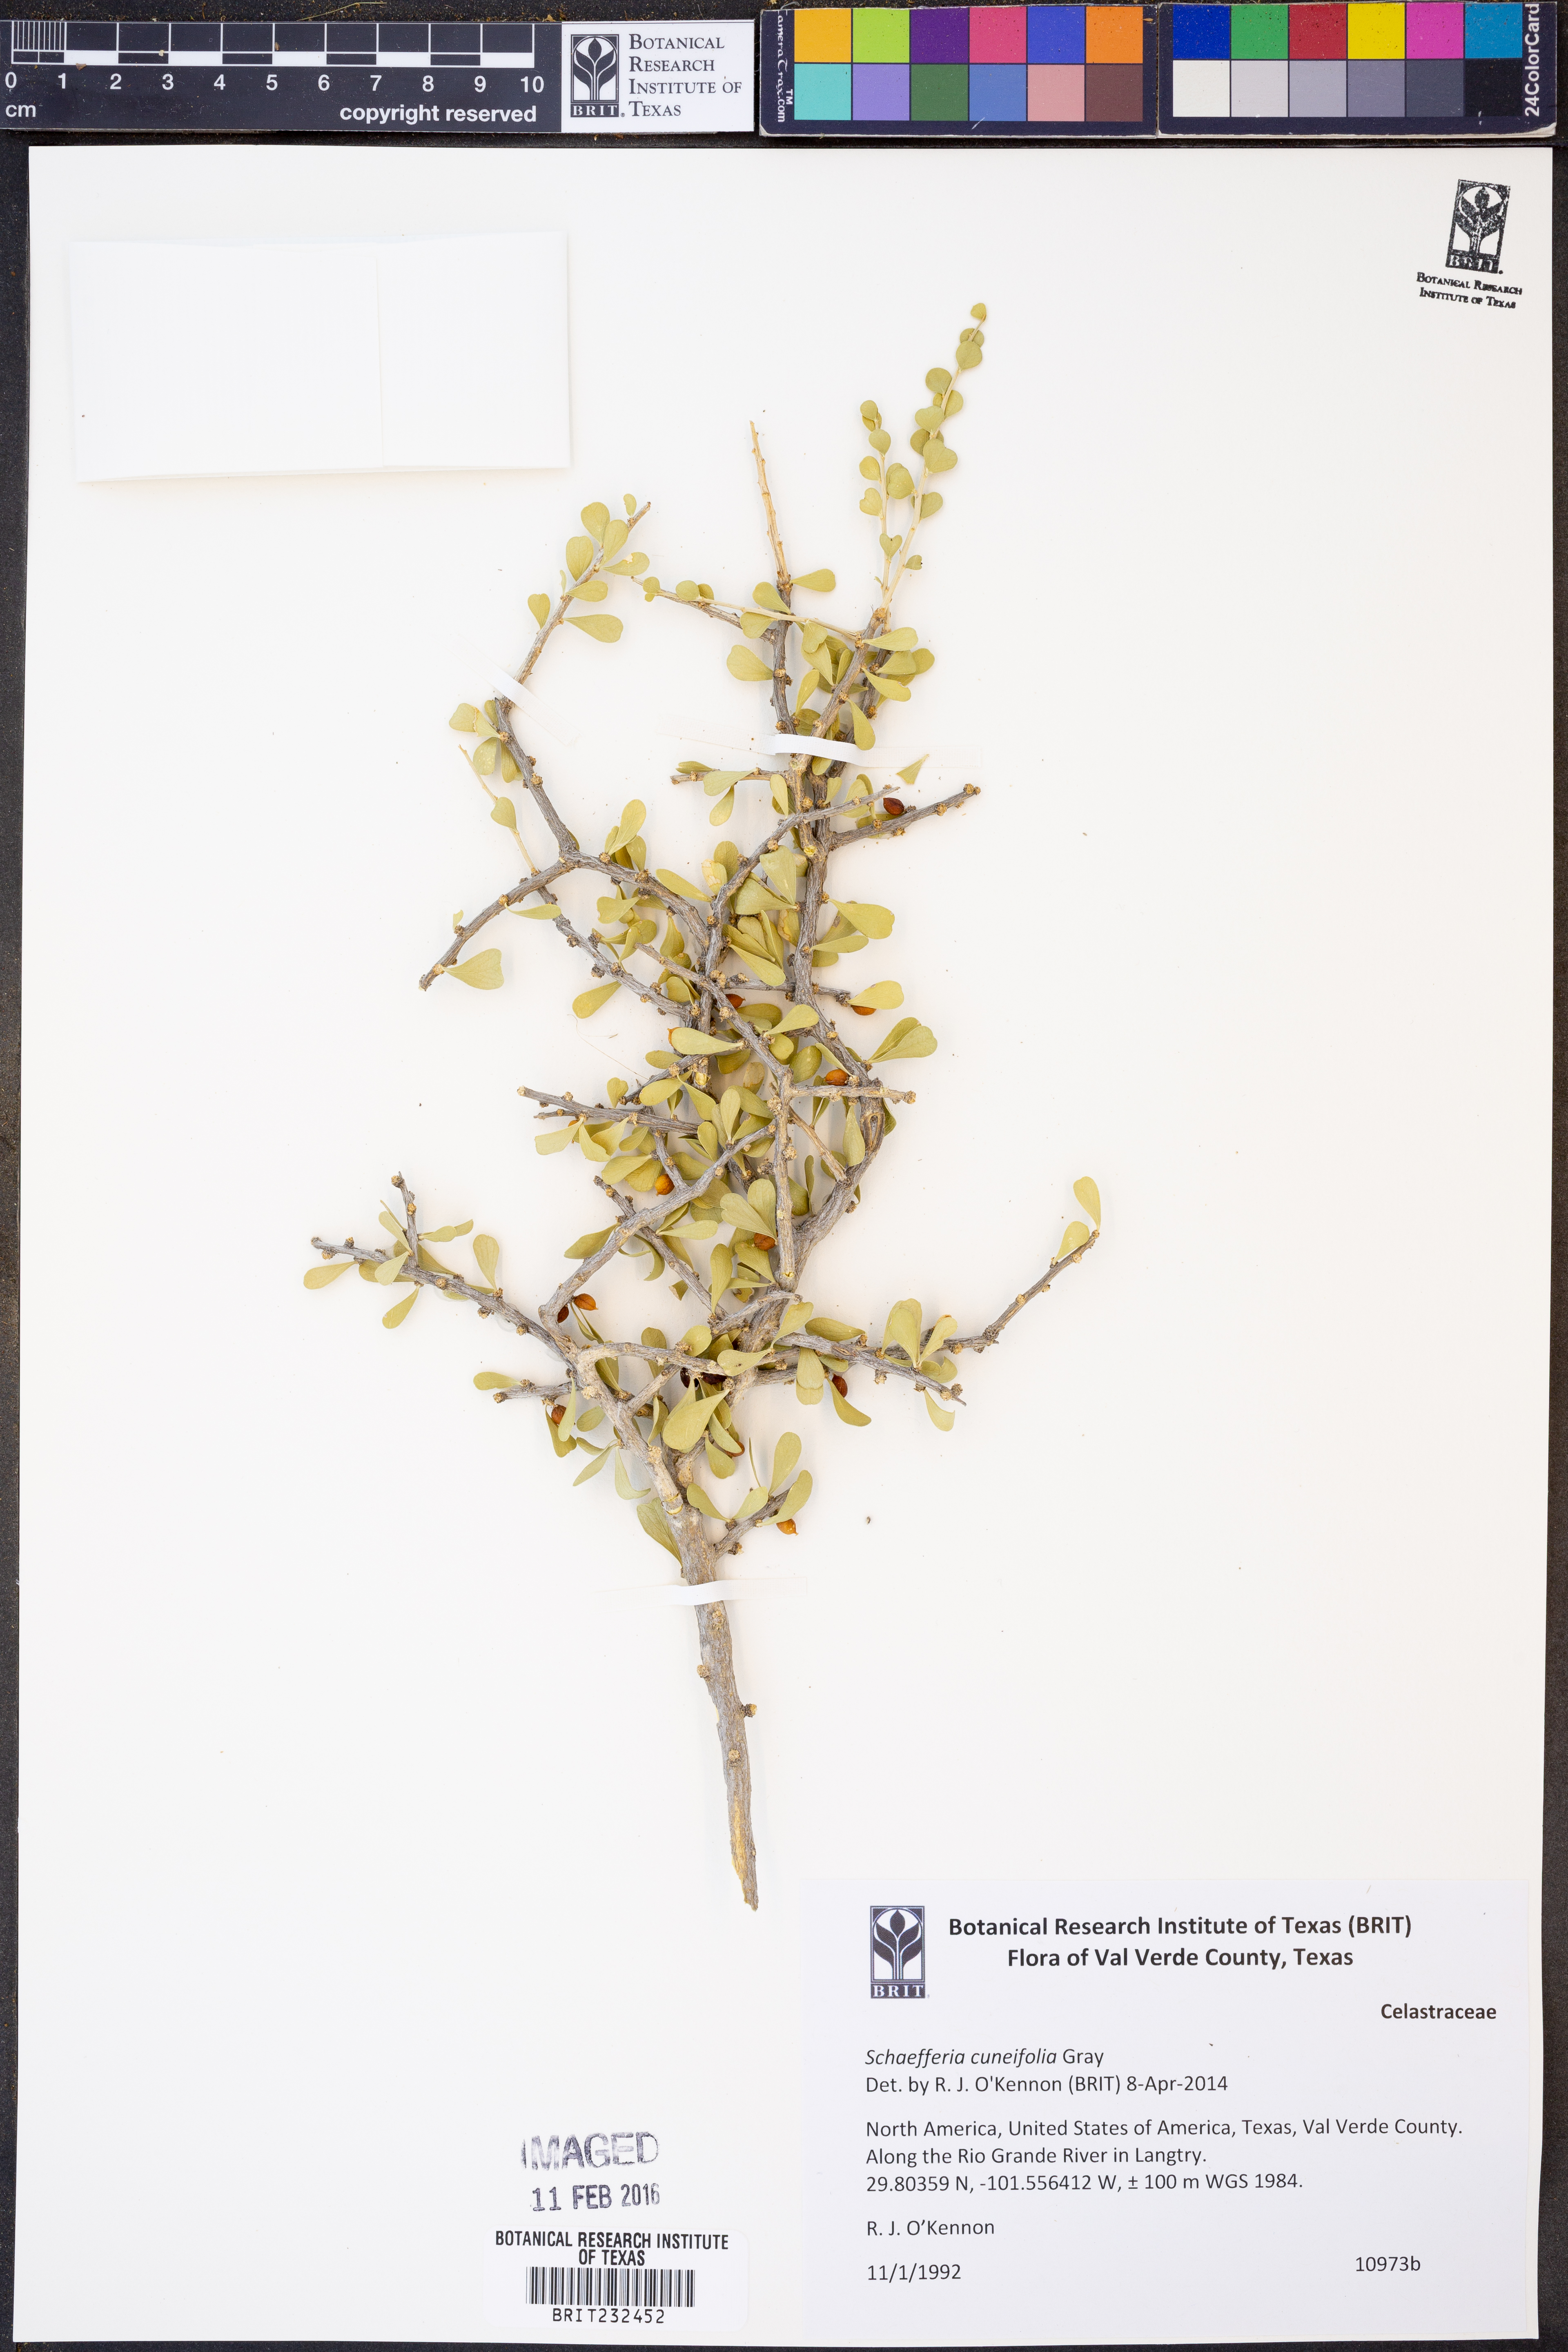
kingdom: Plantae
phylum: Tracheophyta
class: Magnoliopsida
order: Celastrales
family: Celastraceae
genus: Schaefferia
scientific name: Schaefferia cuneifolia
